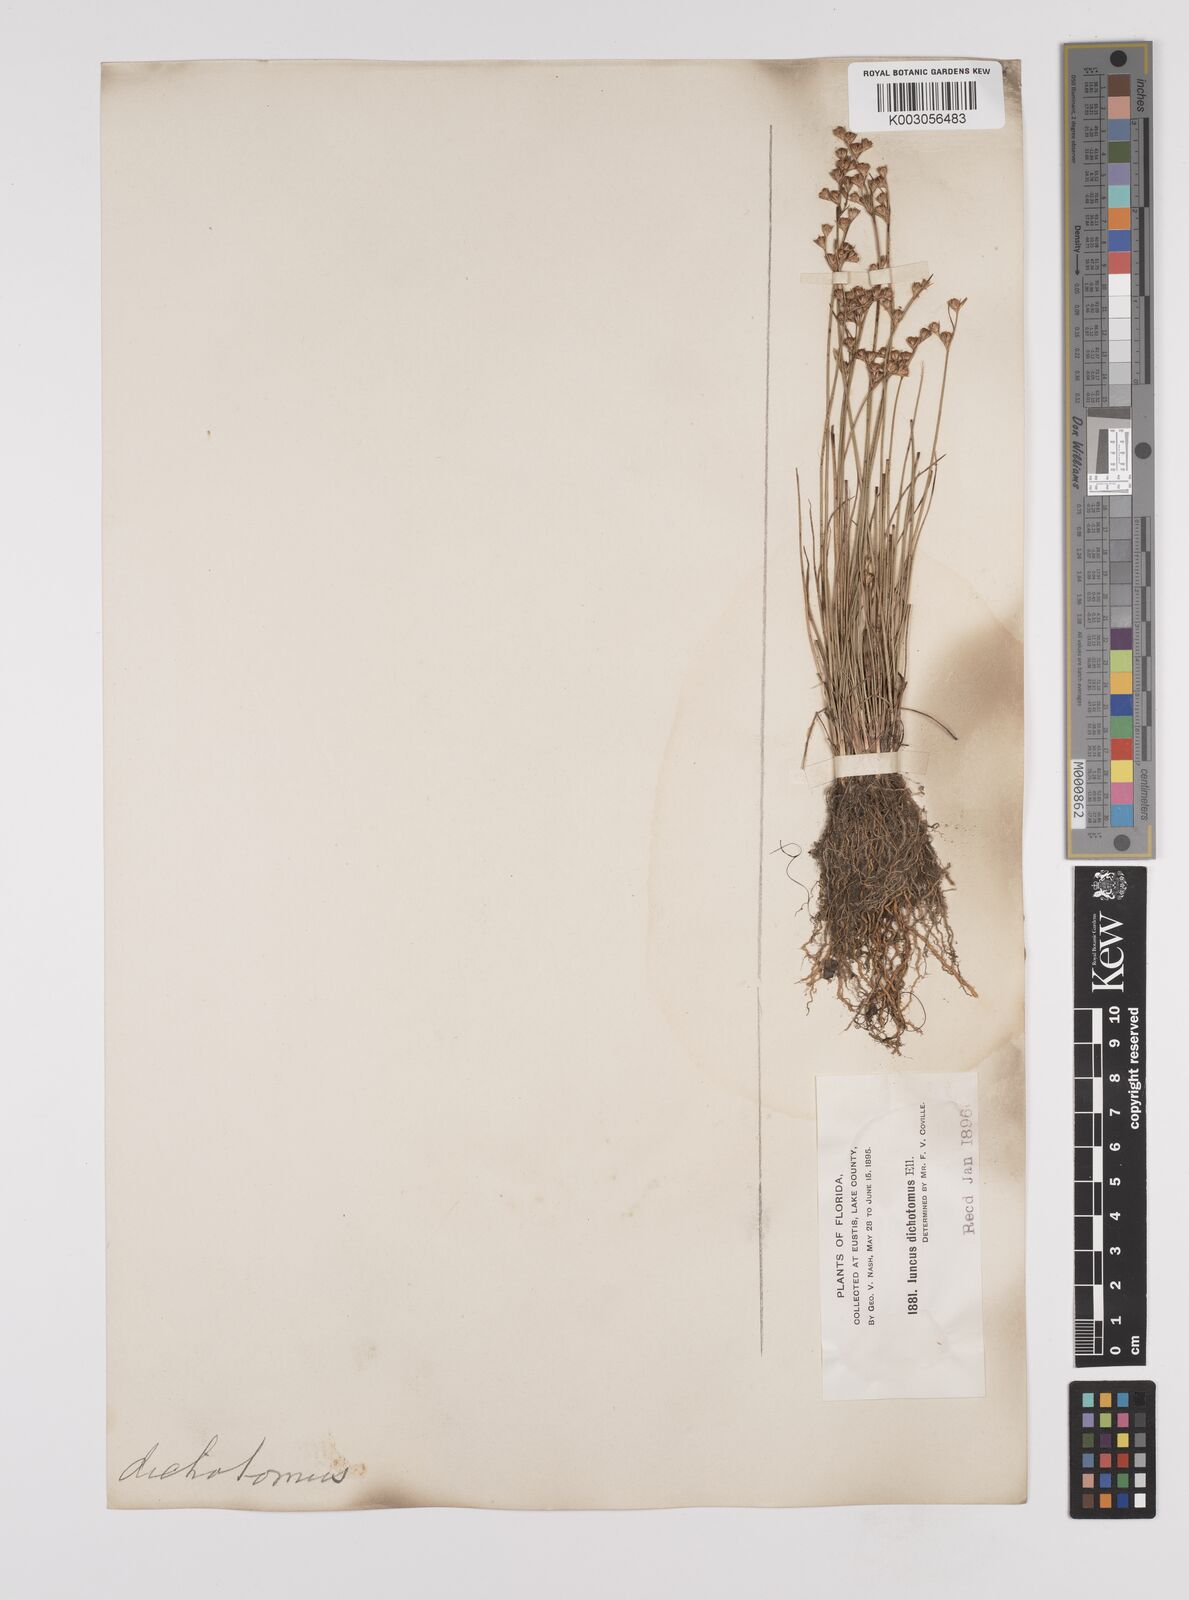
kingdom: Plantae
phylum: Tracheophyta
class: Liliopsida
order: Poales
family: Juncaceae
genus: Juncus
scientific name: Juncus dichotomus
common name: Forked rush
